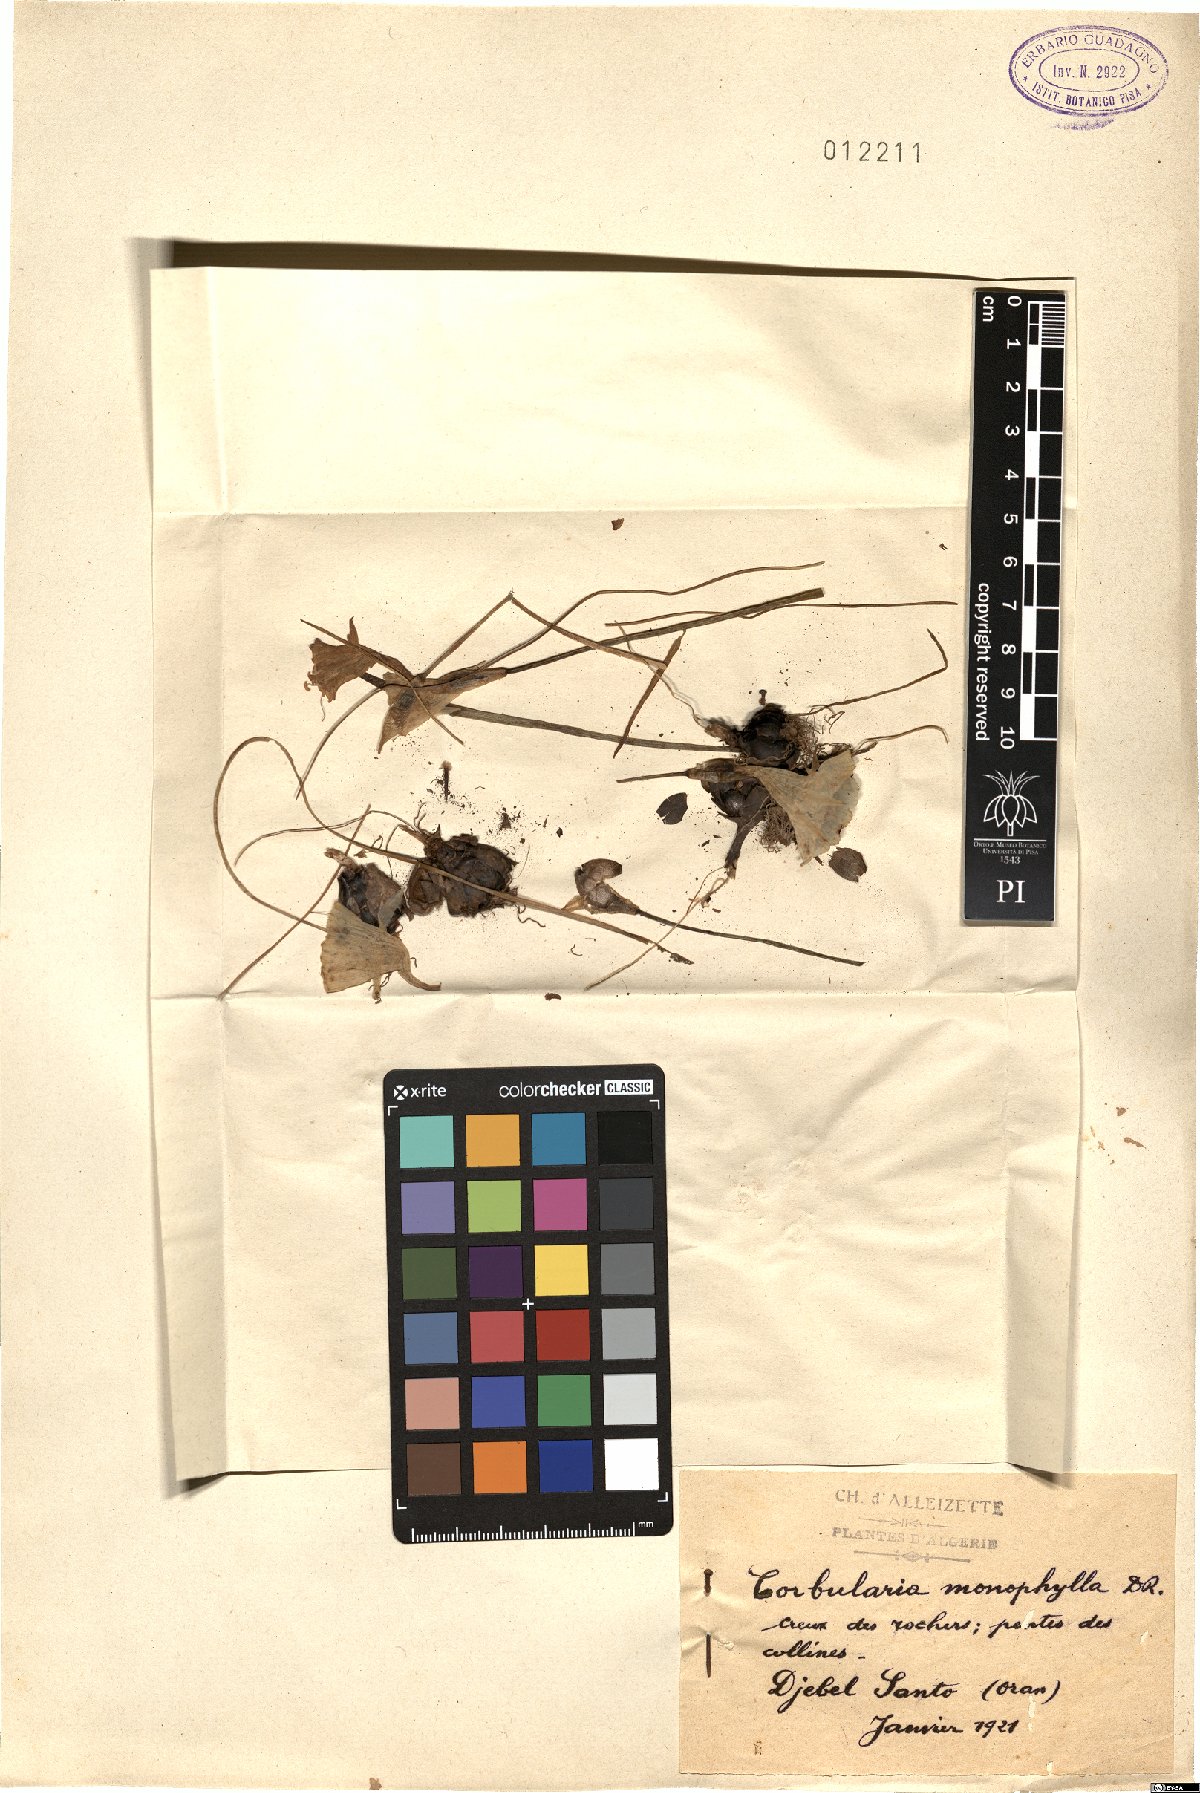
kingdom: Plantae
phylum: Tracheophyta
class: Liliopsida
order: Asparagales
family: Amaryllidaceae
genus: Narcissus
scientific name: Narcissus cantabricus
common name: White hoop petticoat daffodil
